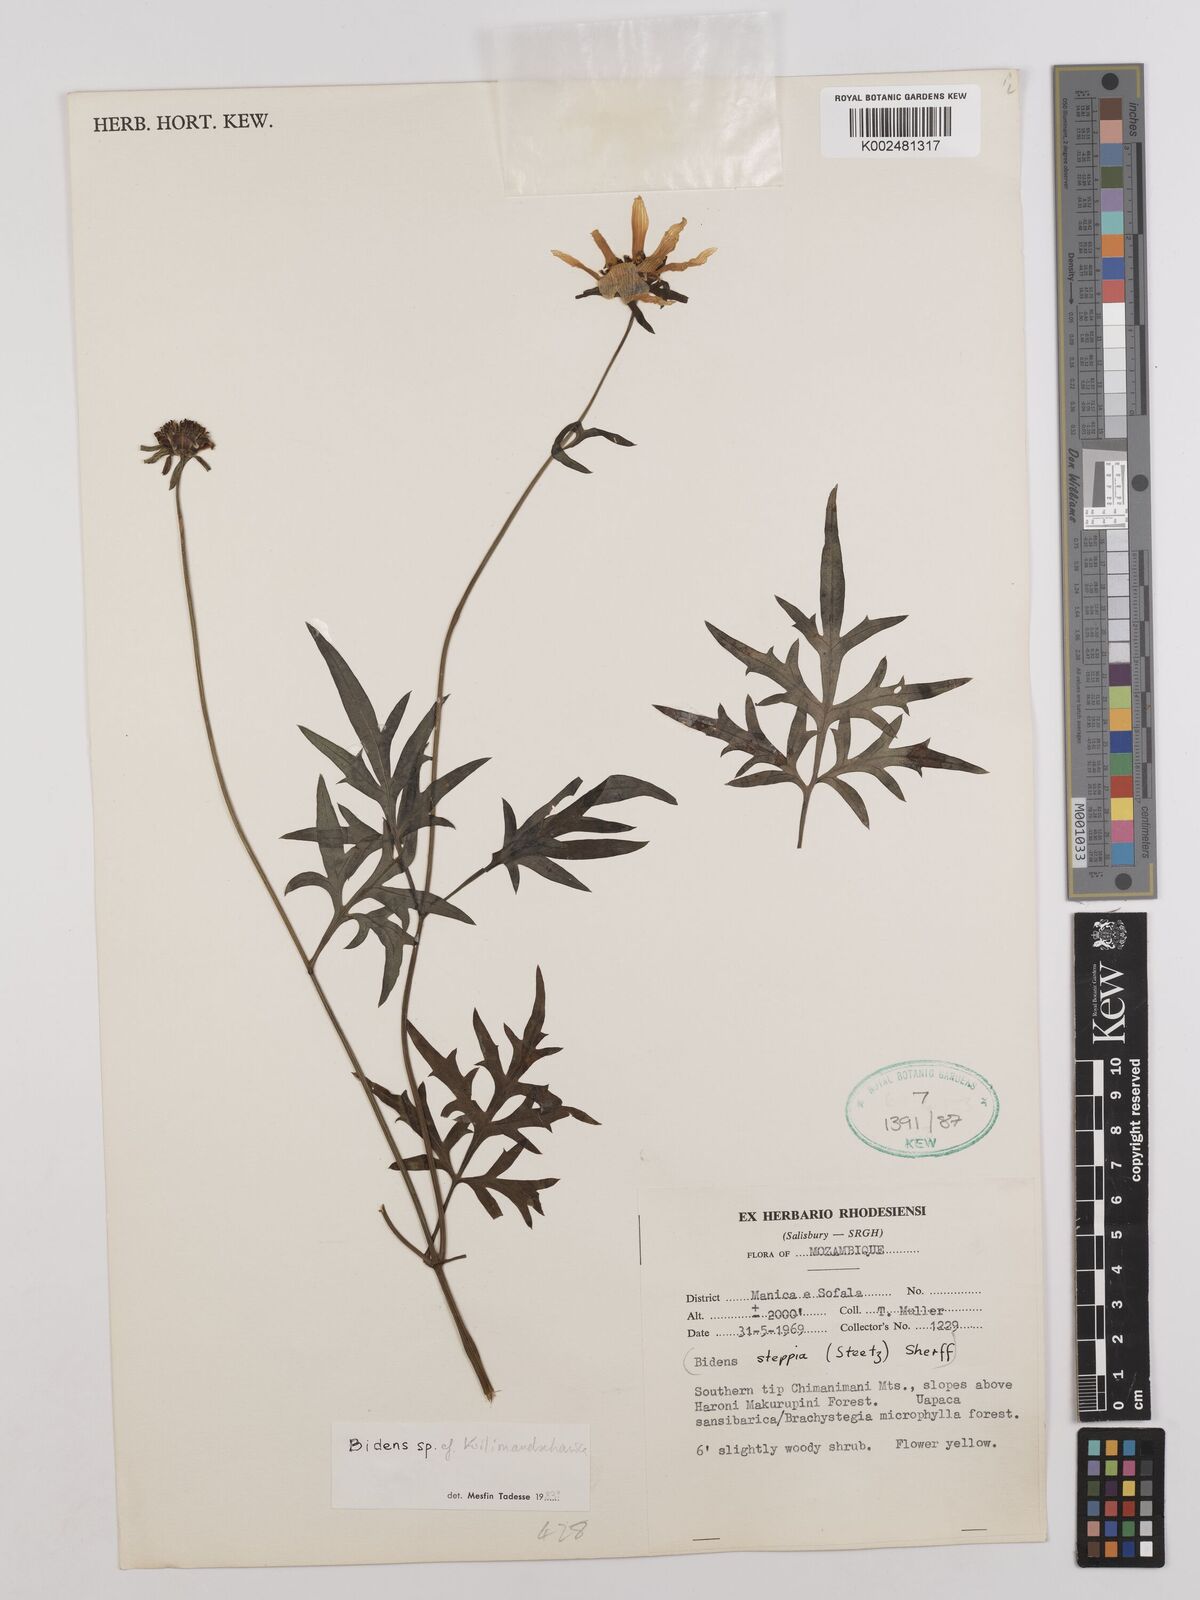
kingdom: Plantae
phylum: Tracheophyta
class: Magnoliopsida
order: Asterales
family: Asteraceae
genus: Bidens
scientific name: Bidens kilimandscharica
